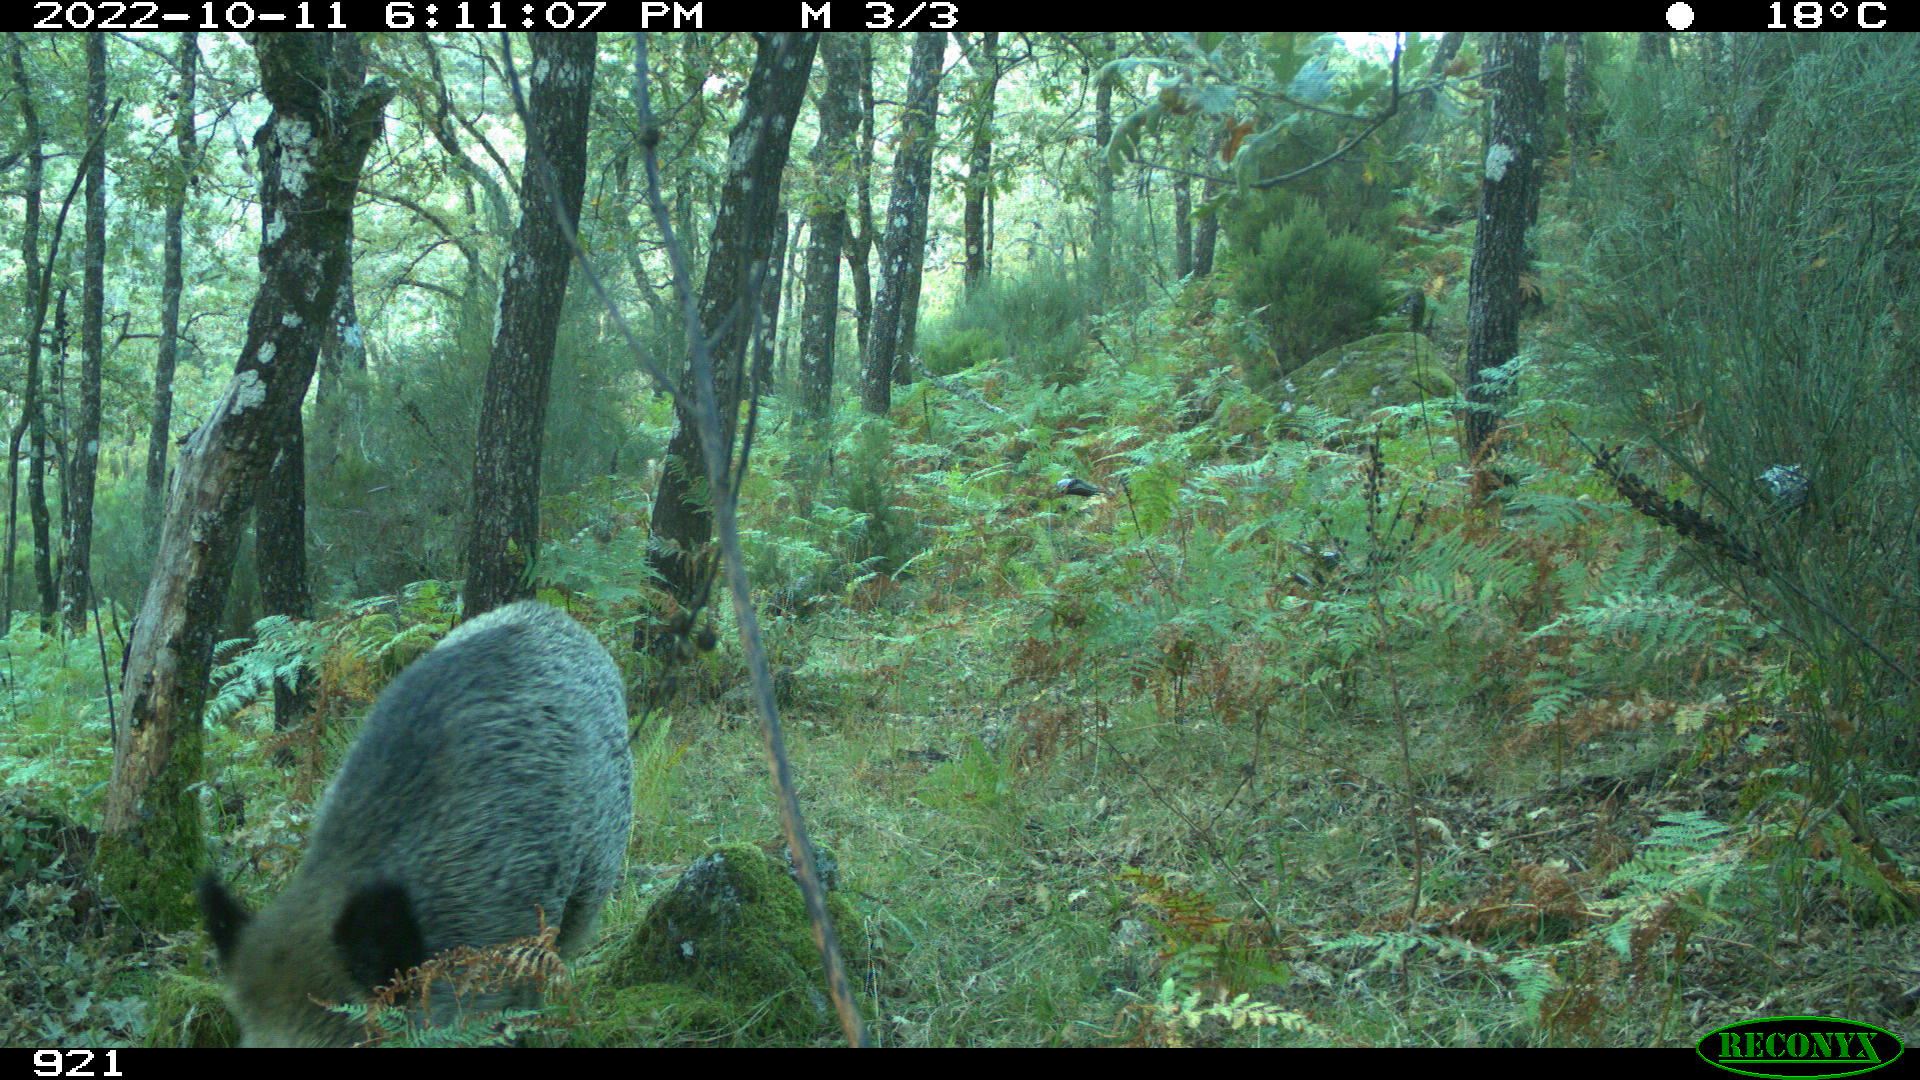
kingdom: Animalia
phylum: Chordata
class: Mammalia
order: Artiodactyla
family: Suidae
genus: Sus
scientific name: Sus scrofa
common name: Wild boar
